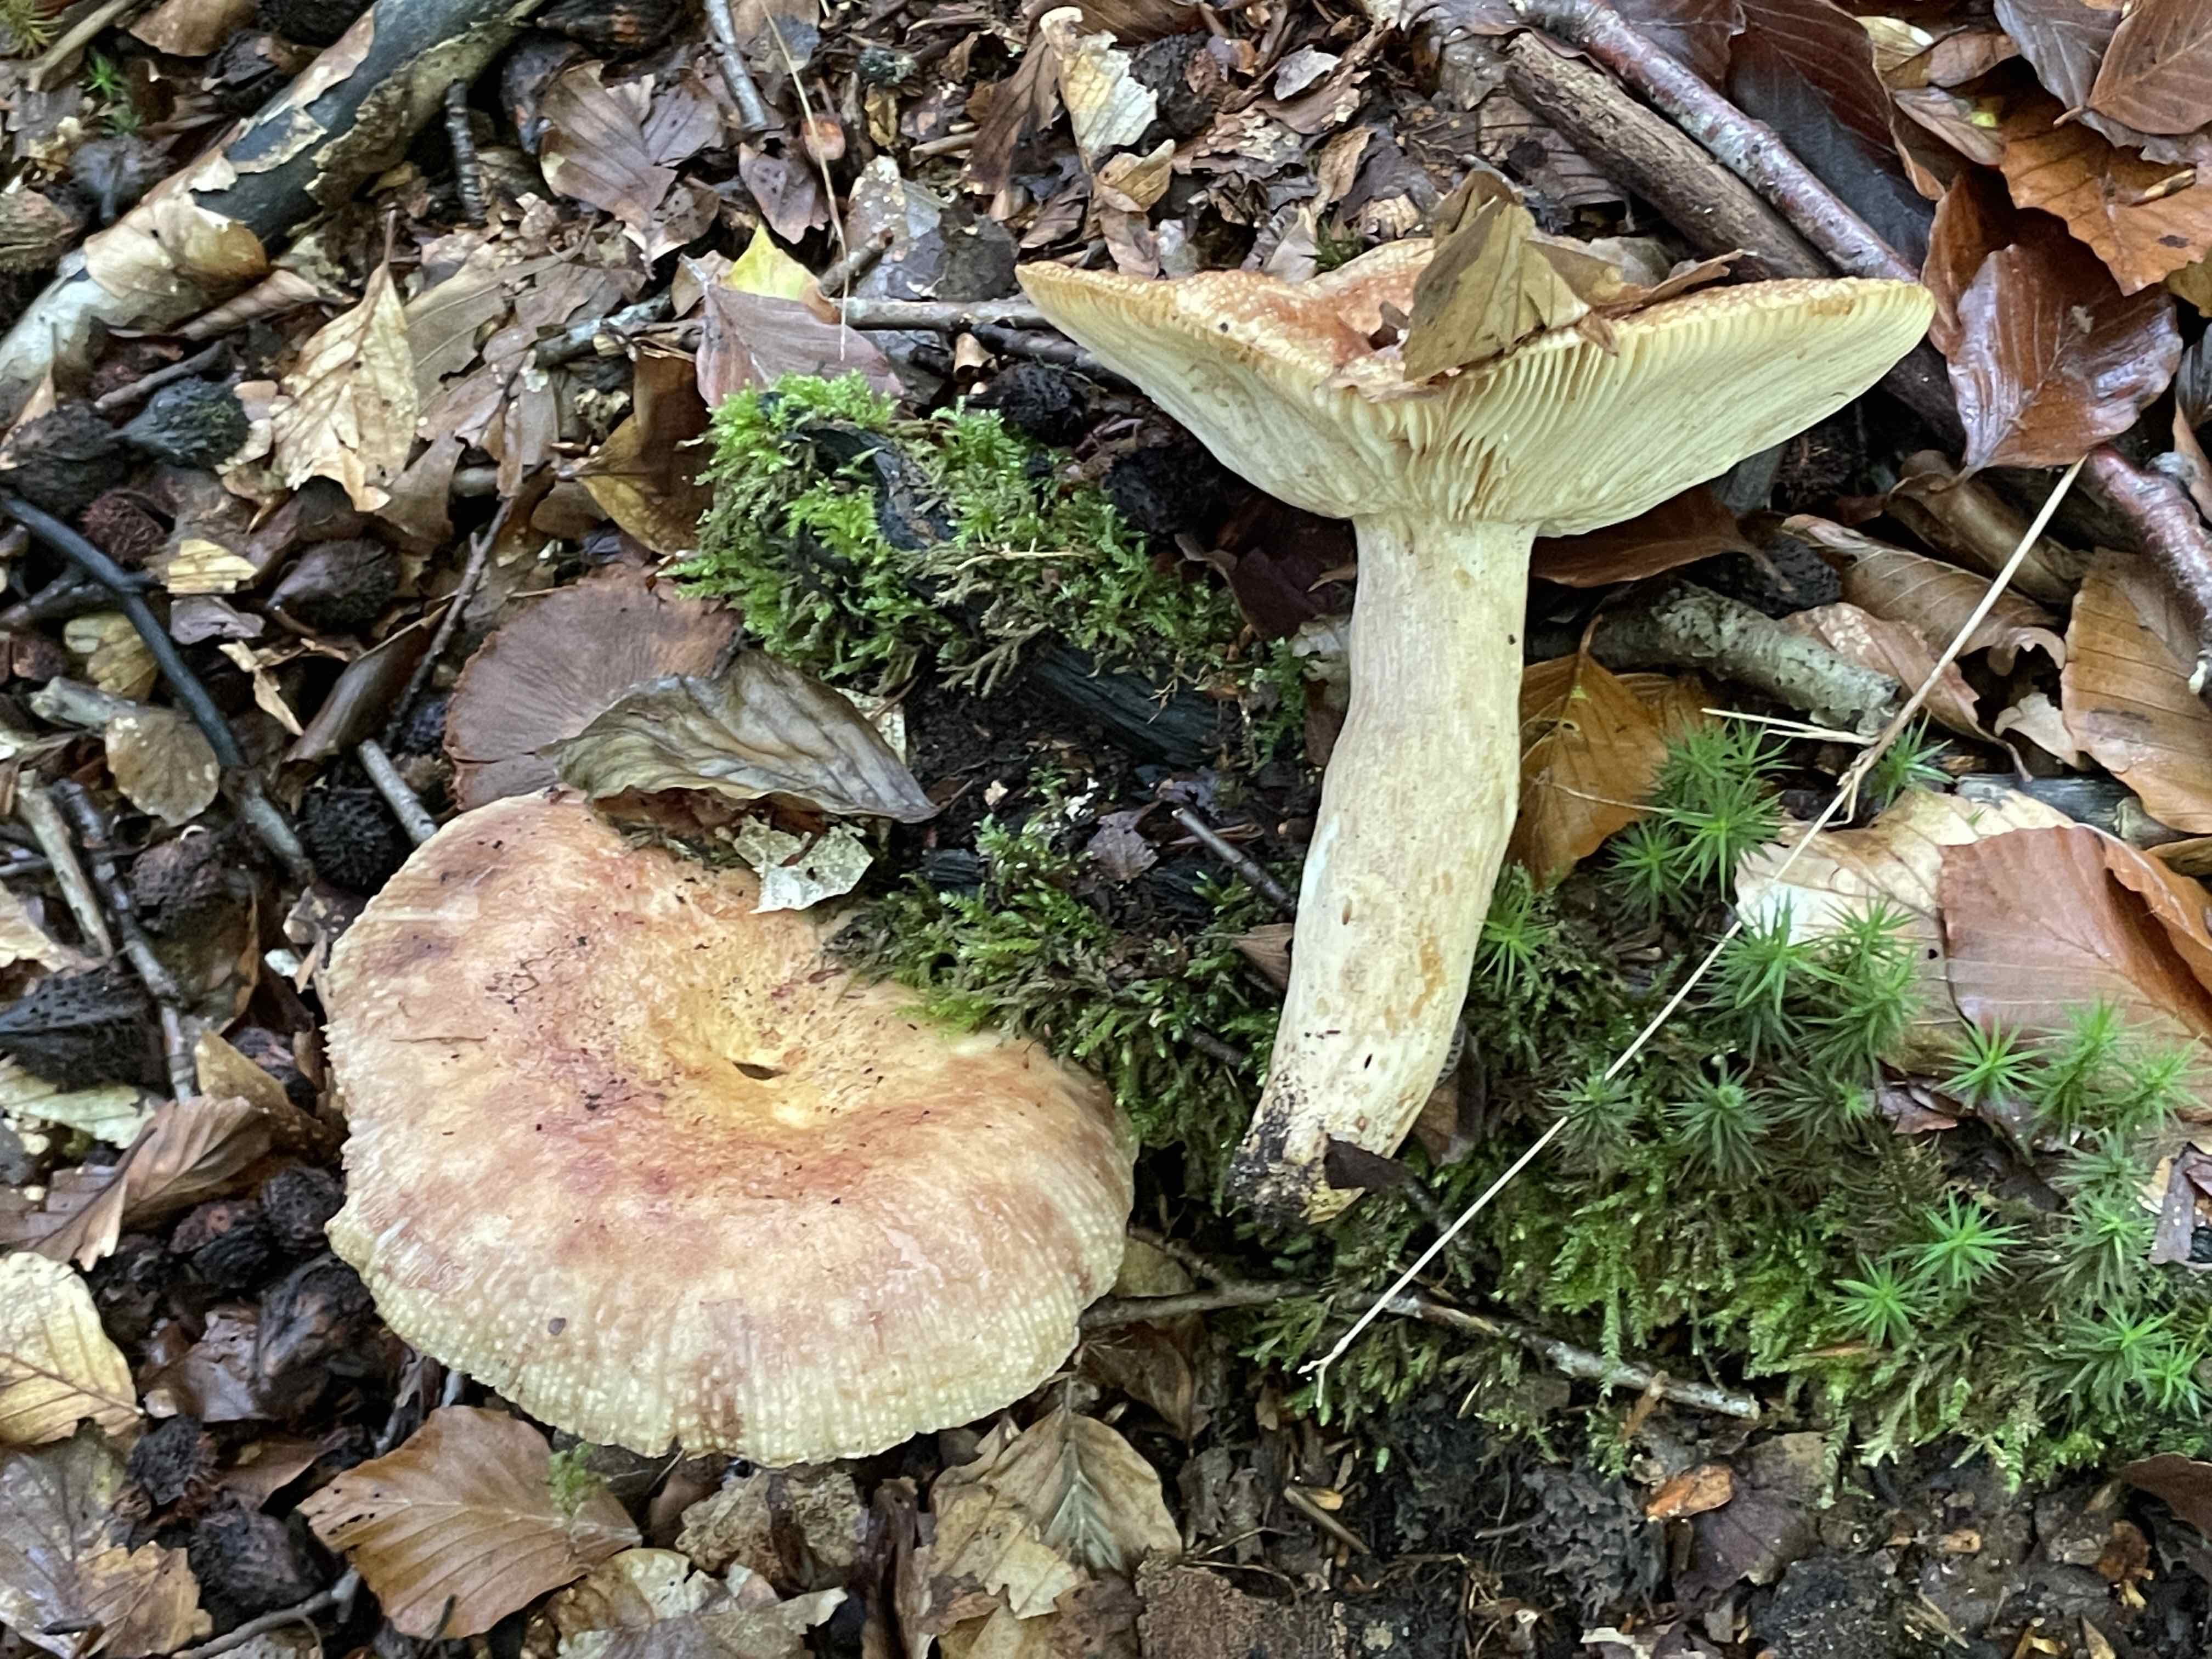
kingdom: Fungi
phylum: Basidiomycota
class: Agaricomycetes
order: Russulales
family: Russulaceae
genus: Russula
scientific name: Russula grata
